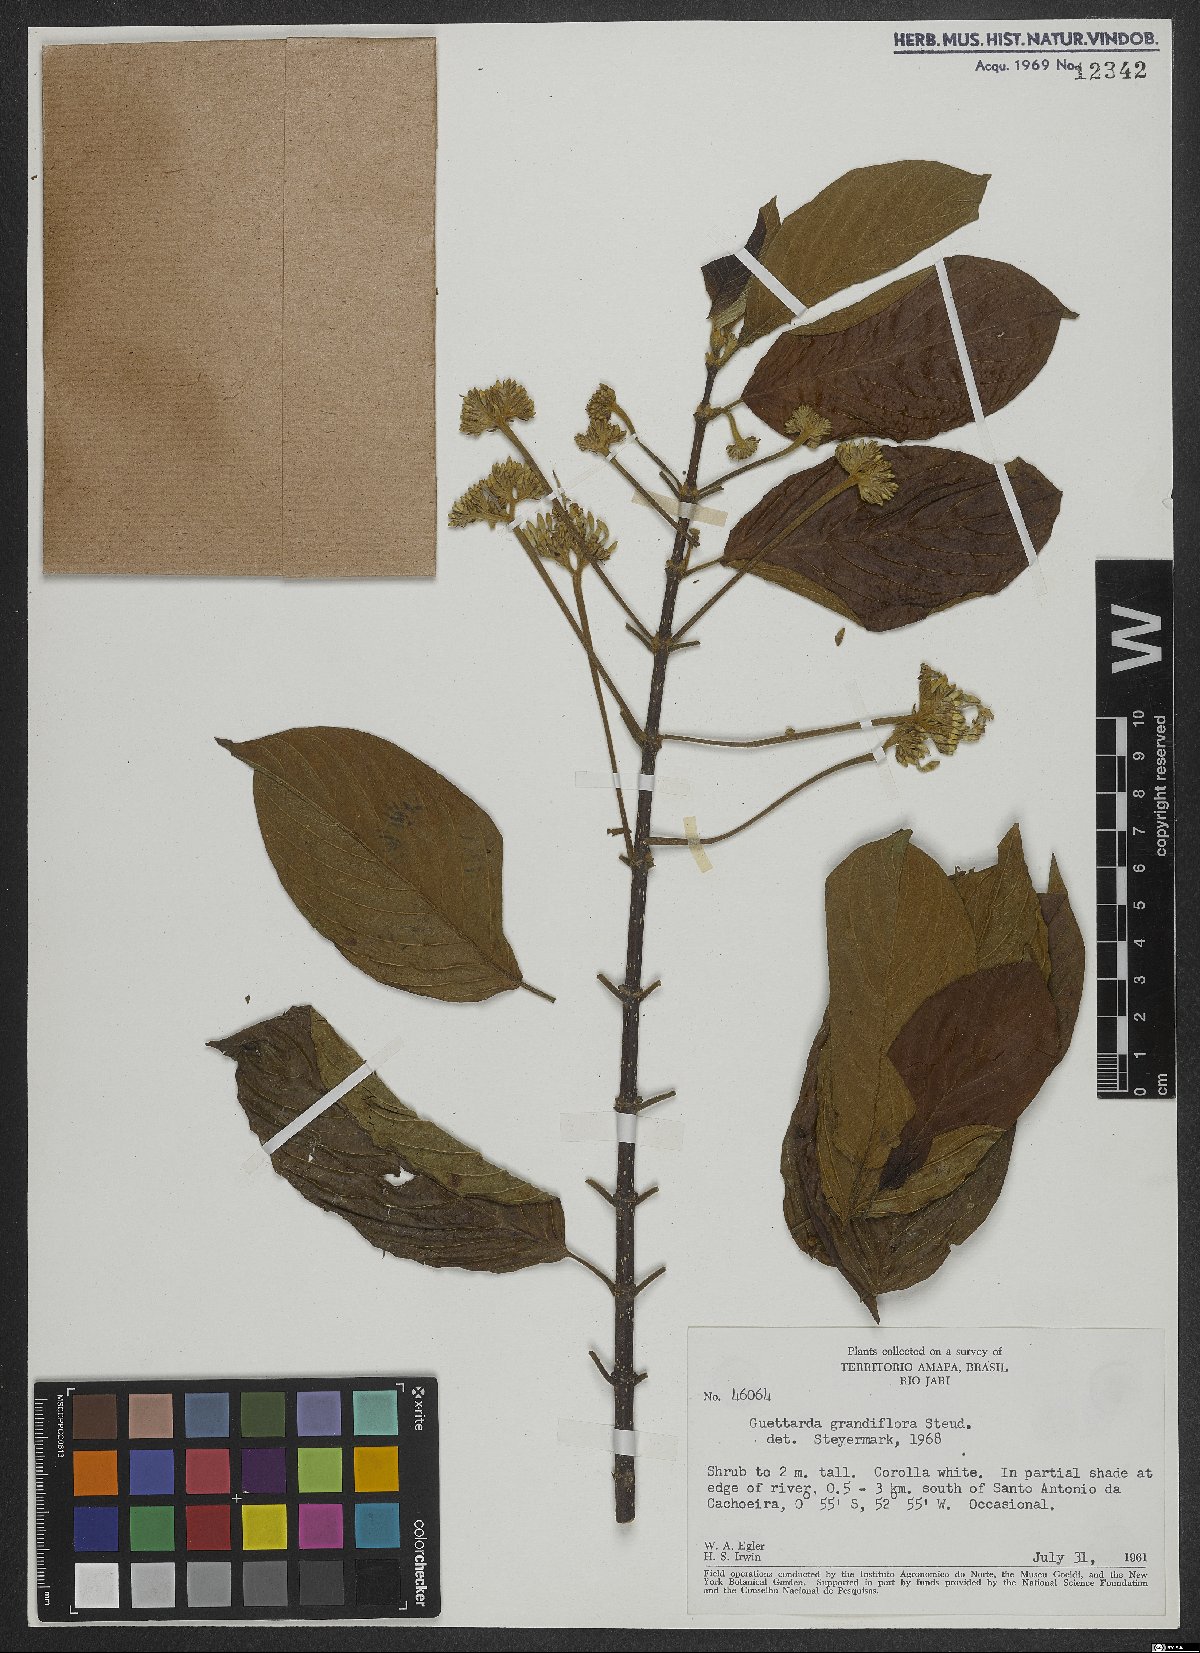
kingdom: Plantae
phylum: Tracheophyta
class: Magnoliopsida
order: Gentianales
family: Rubiaceae
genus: Guettarda
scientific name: Guettarda aromatica
